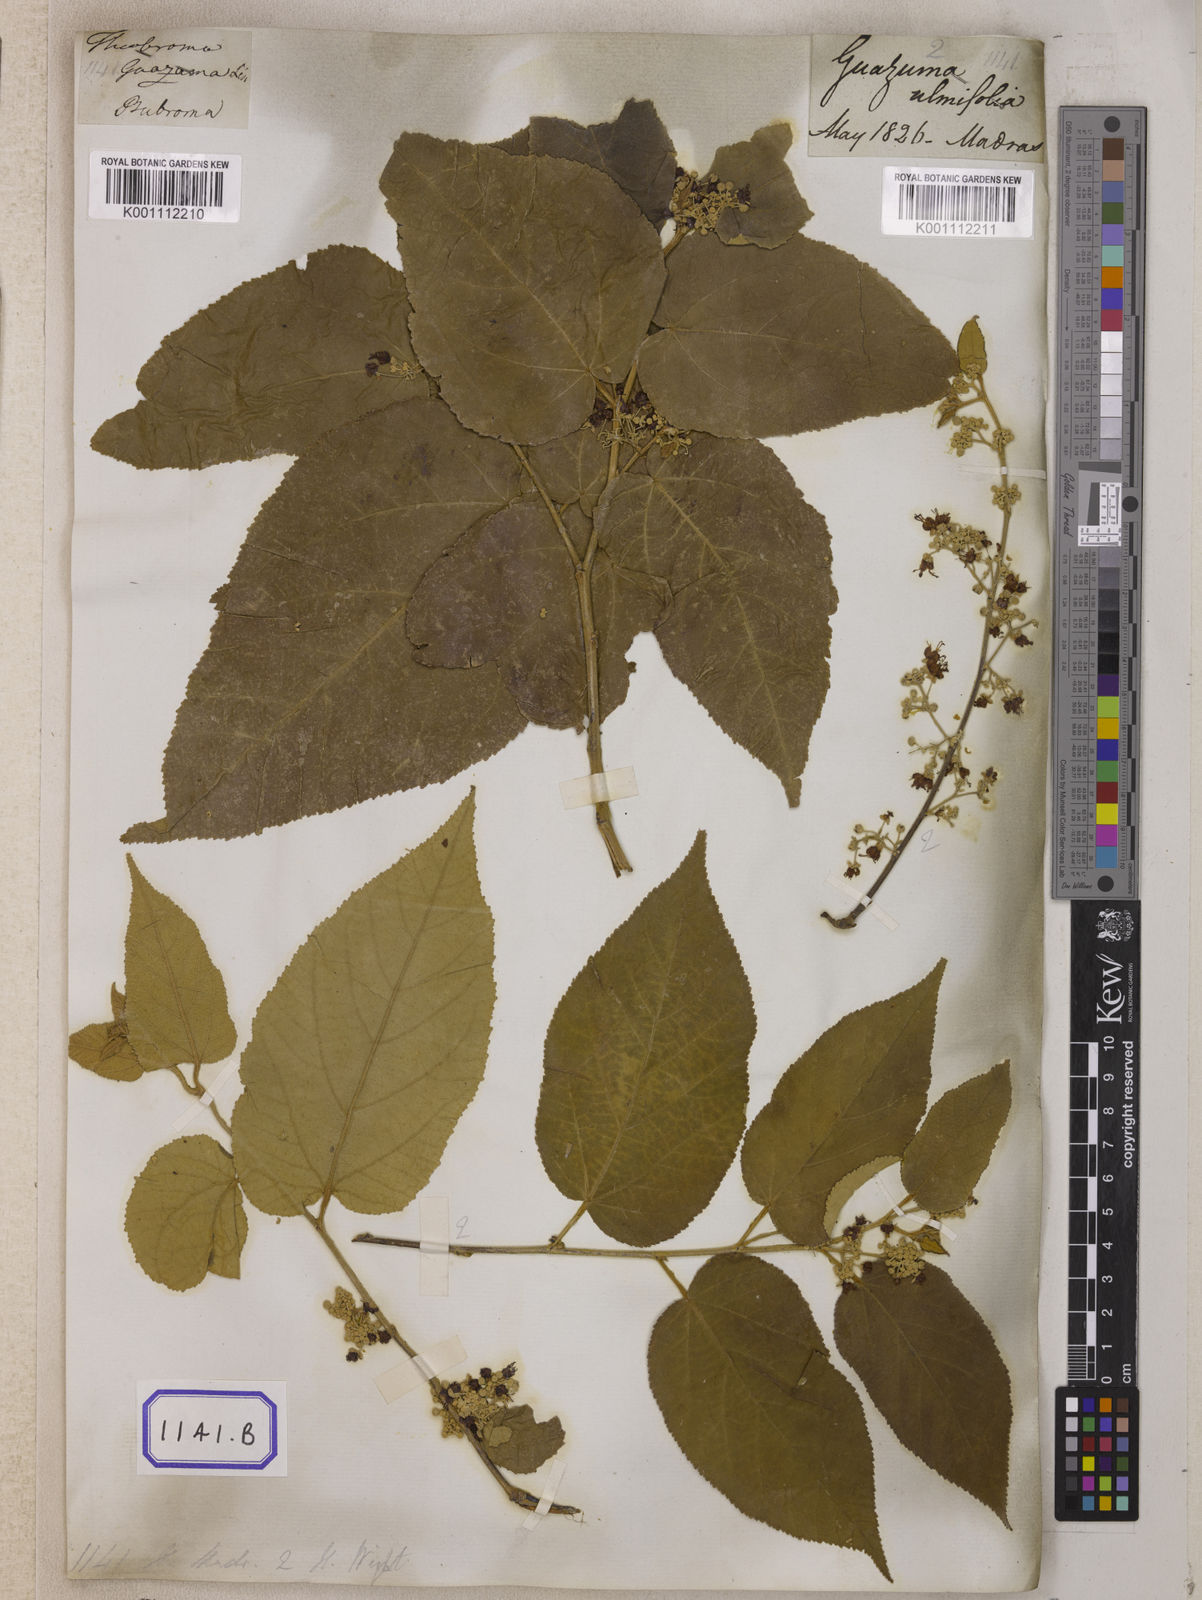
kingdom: Plantae
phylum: Tracheophyta
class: Magnoliopsida
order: Malvales
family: Malvaceae
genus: Guazuma
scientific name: Guazuma ulmifolia
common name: Bastard-cedar
